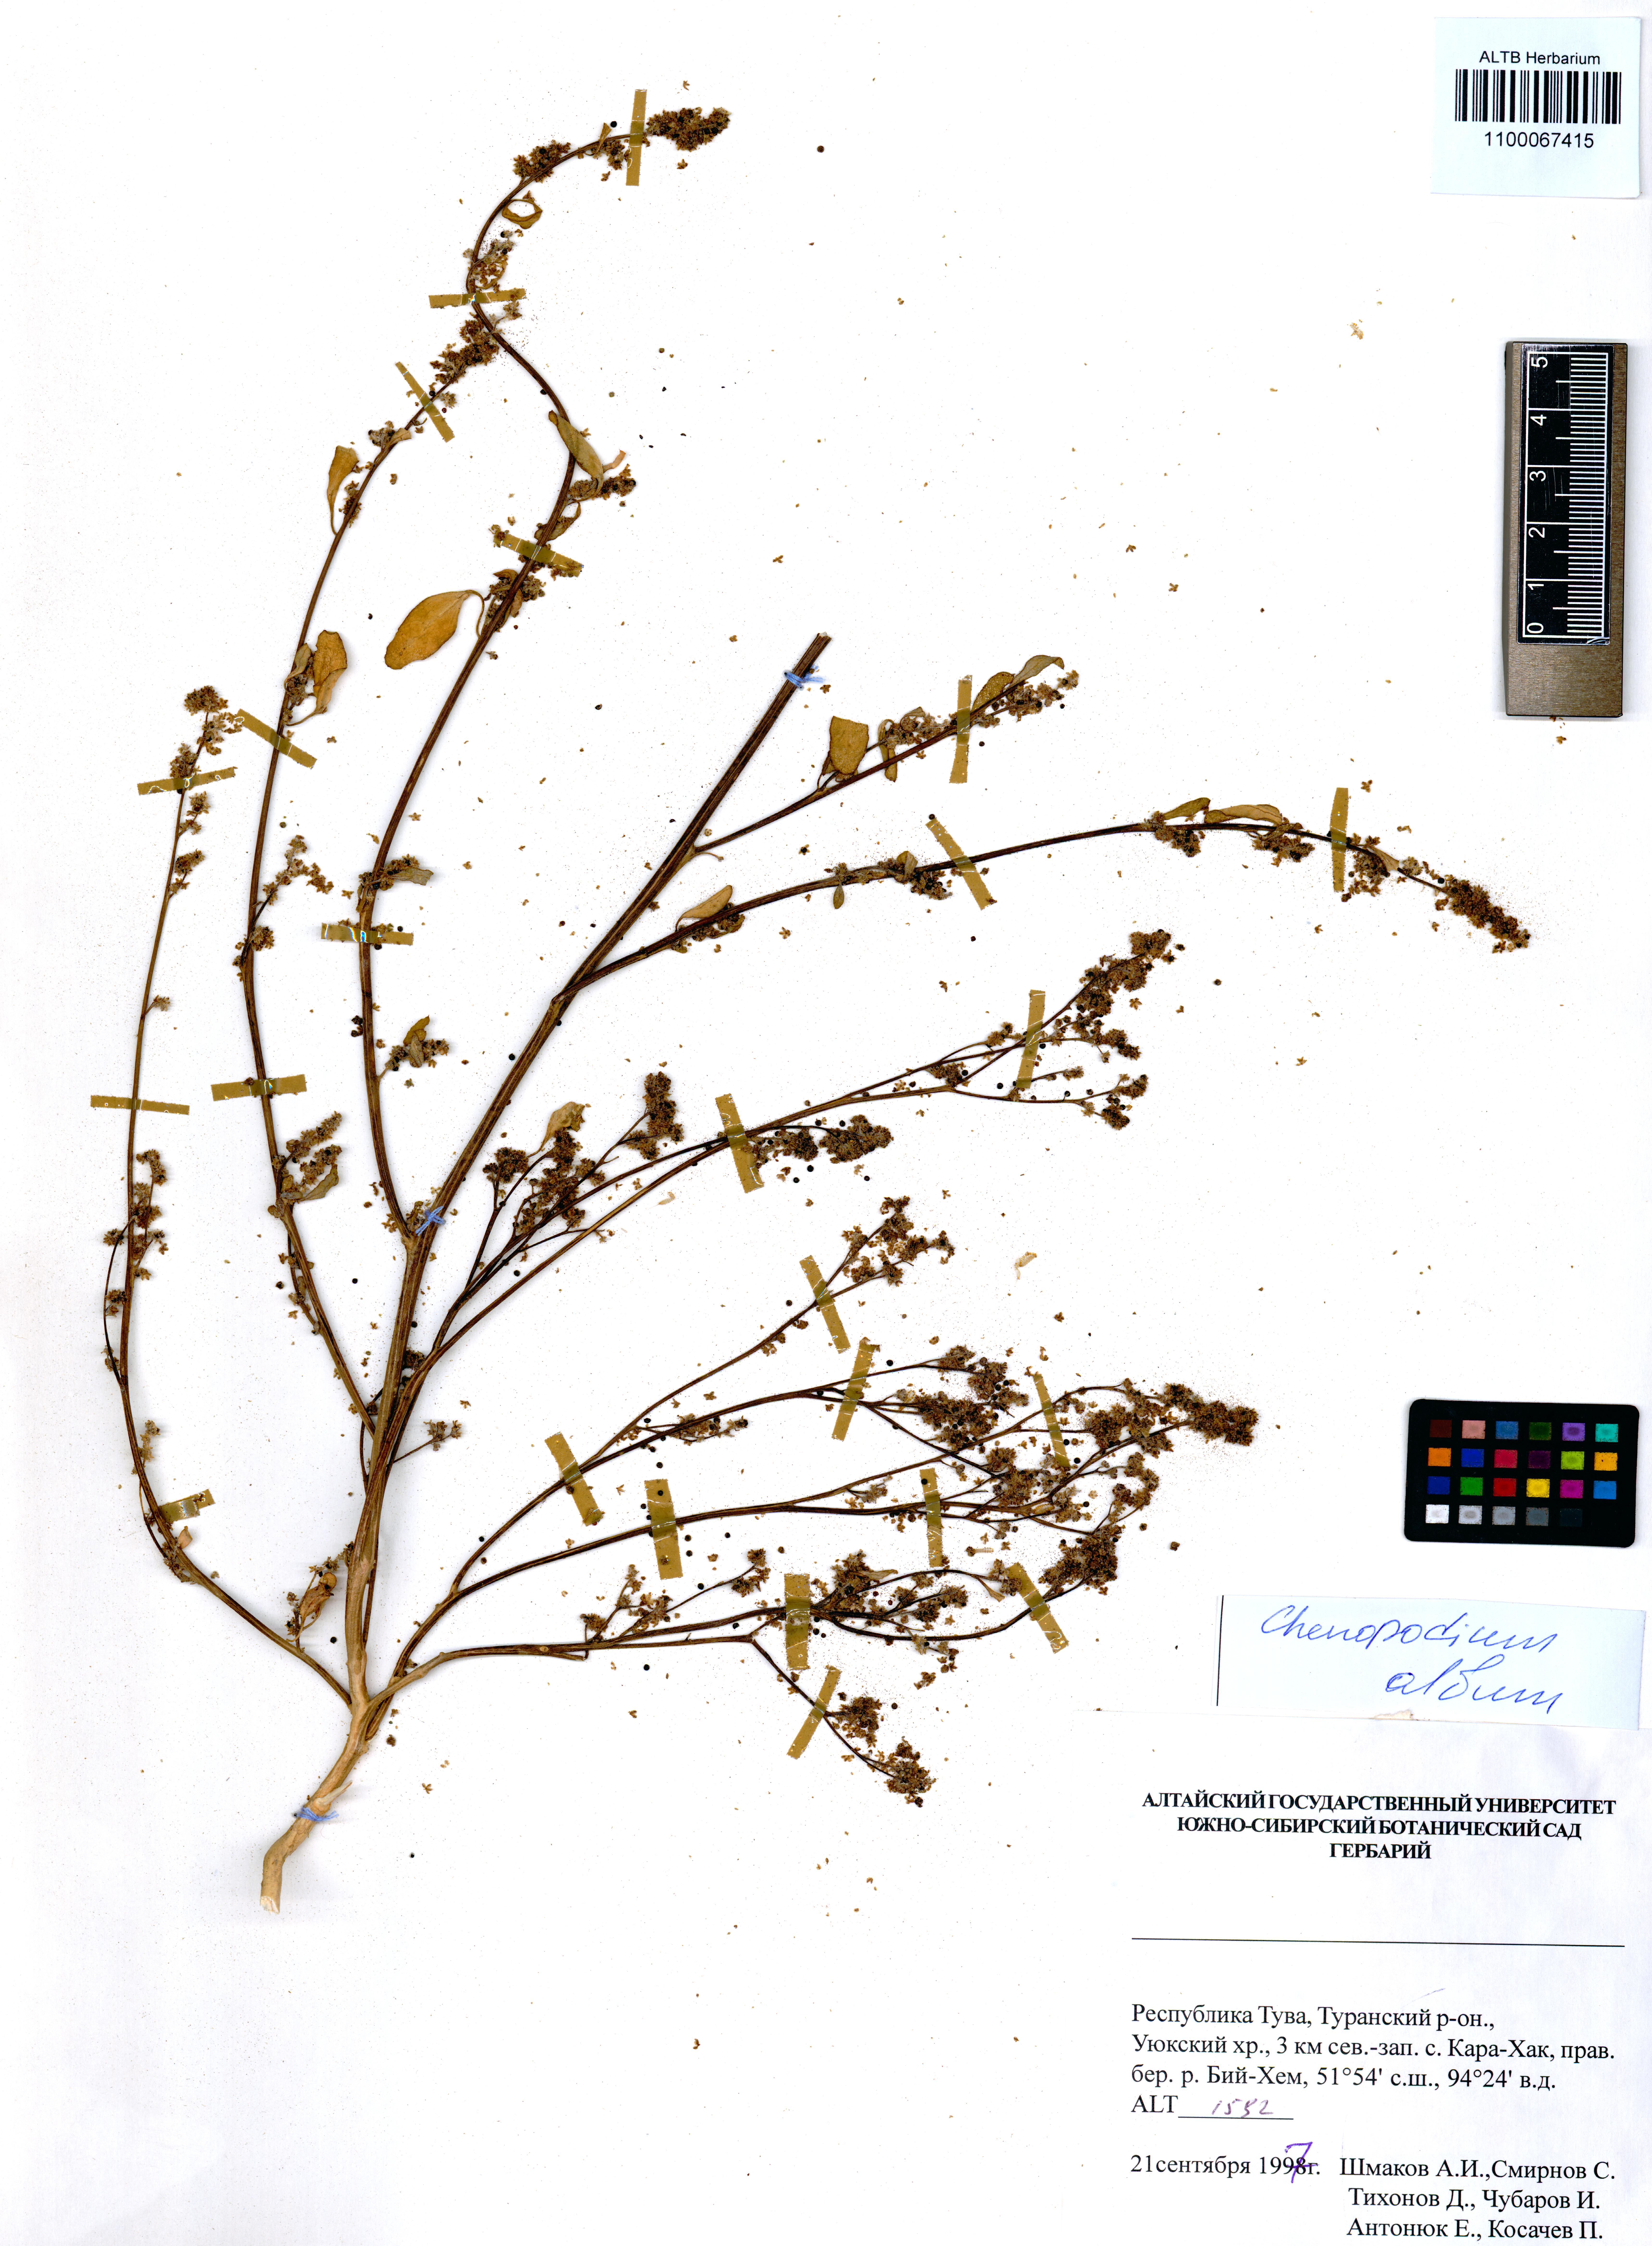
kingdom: Plantae
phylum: Tracheophyta
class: Magnoliopsida
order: Caryophyllales
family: Amaranthaceae
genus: Chenopodium
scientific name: Chenopodium album
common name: Fat-hen
